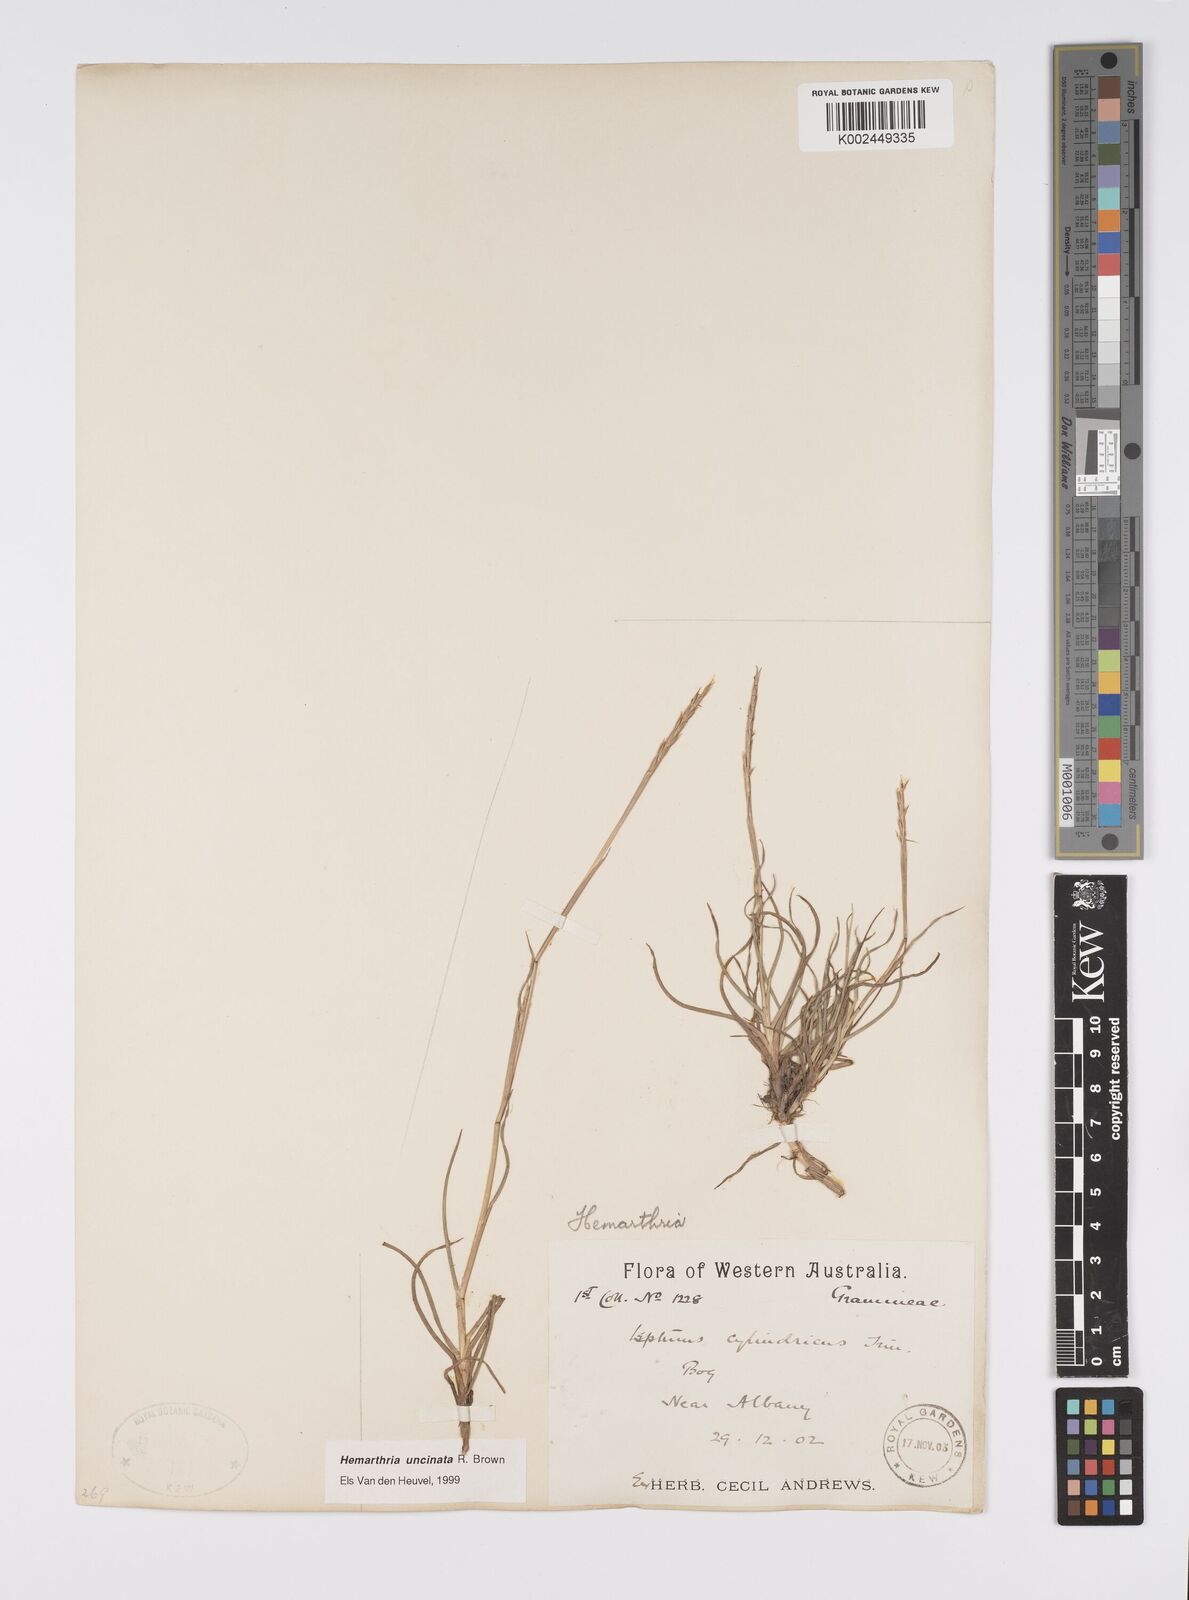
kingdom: Plantae
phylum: Tracheophyta
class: Liliopsida
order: Poales
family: Poaceae
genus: Hemarthria
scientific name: Hemarthria uncinata
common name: Matgrass
